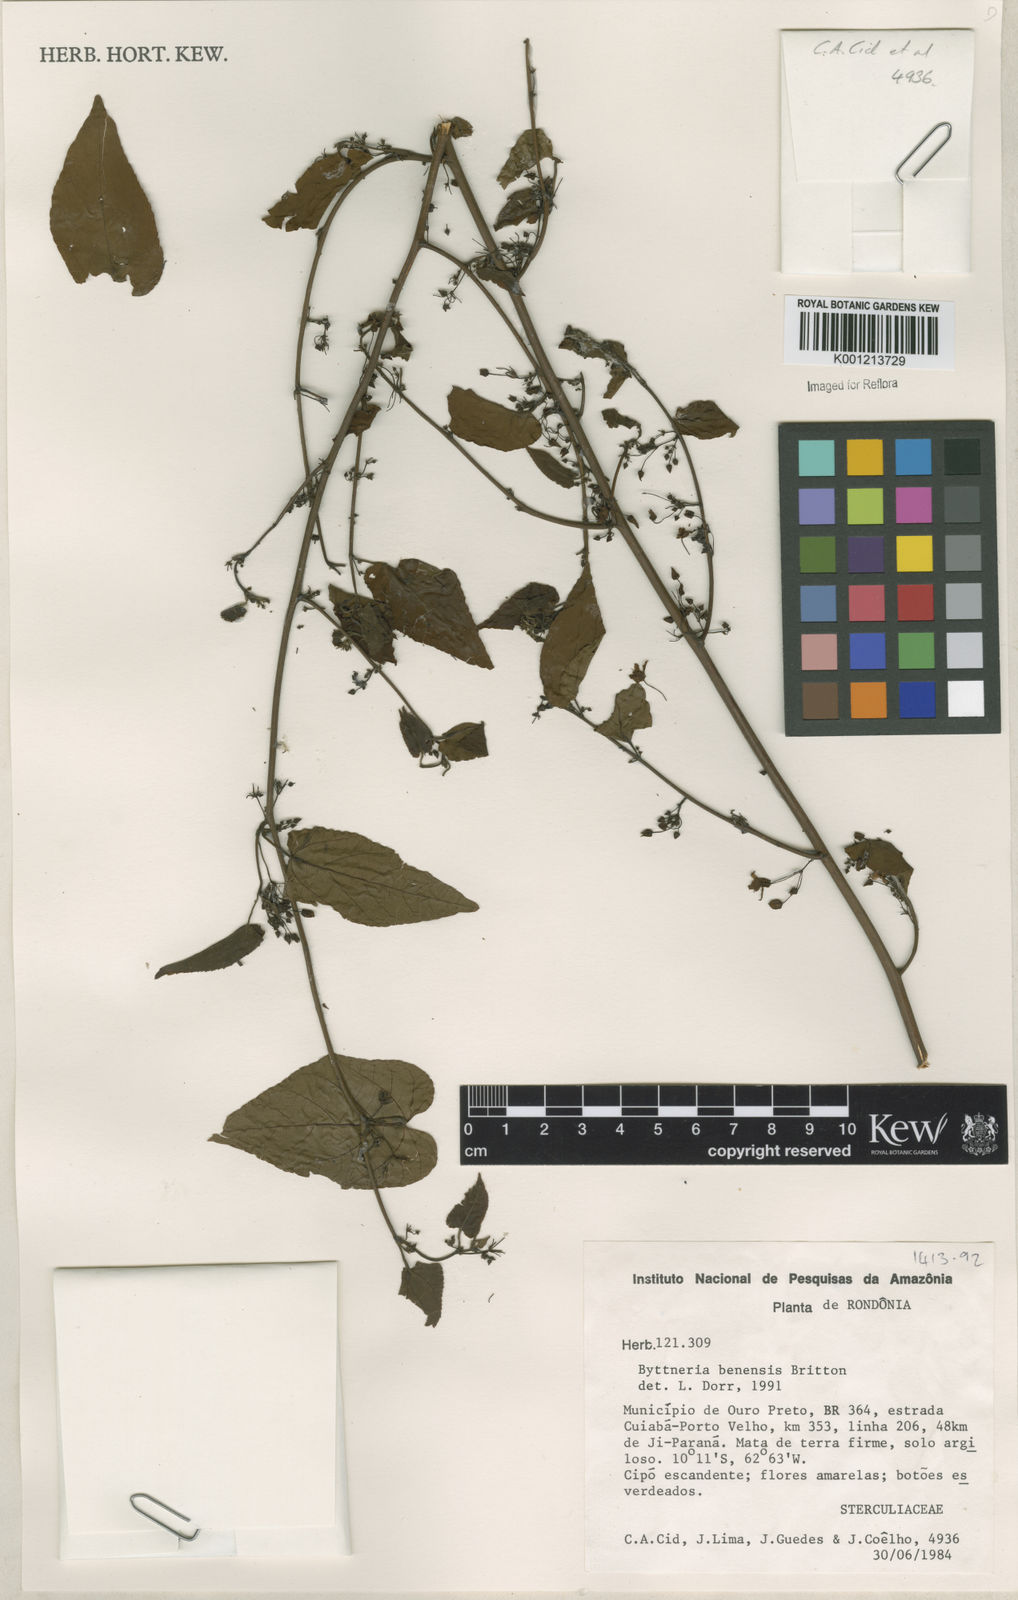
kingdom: Plantae
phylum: Tracheophyta
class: Magnoliopsida
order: Malvales
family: Malvaceae
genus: Byttneria
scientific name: Byttneria benensis
